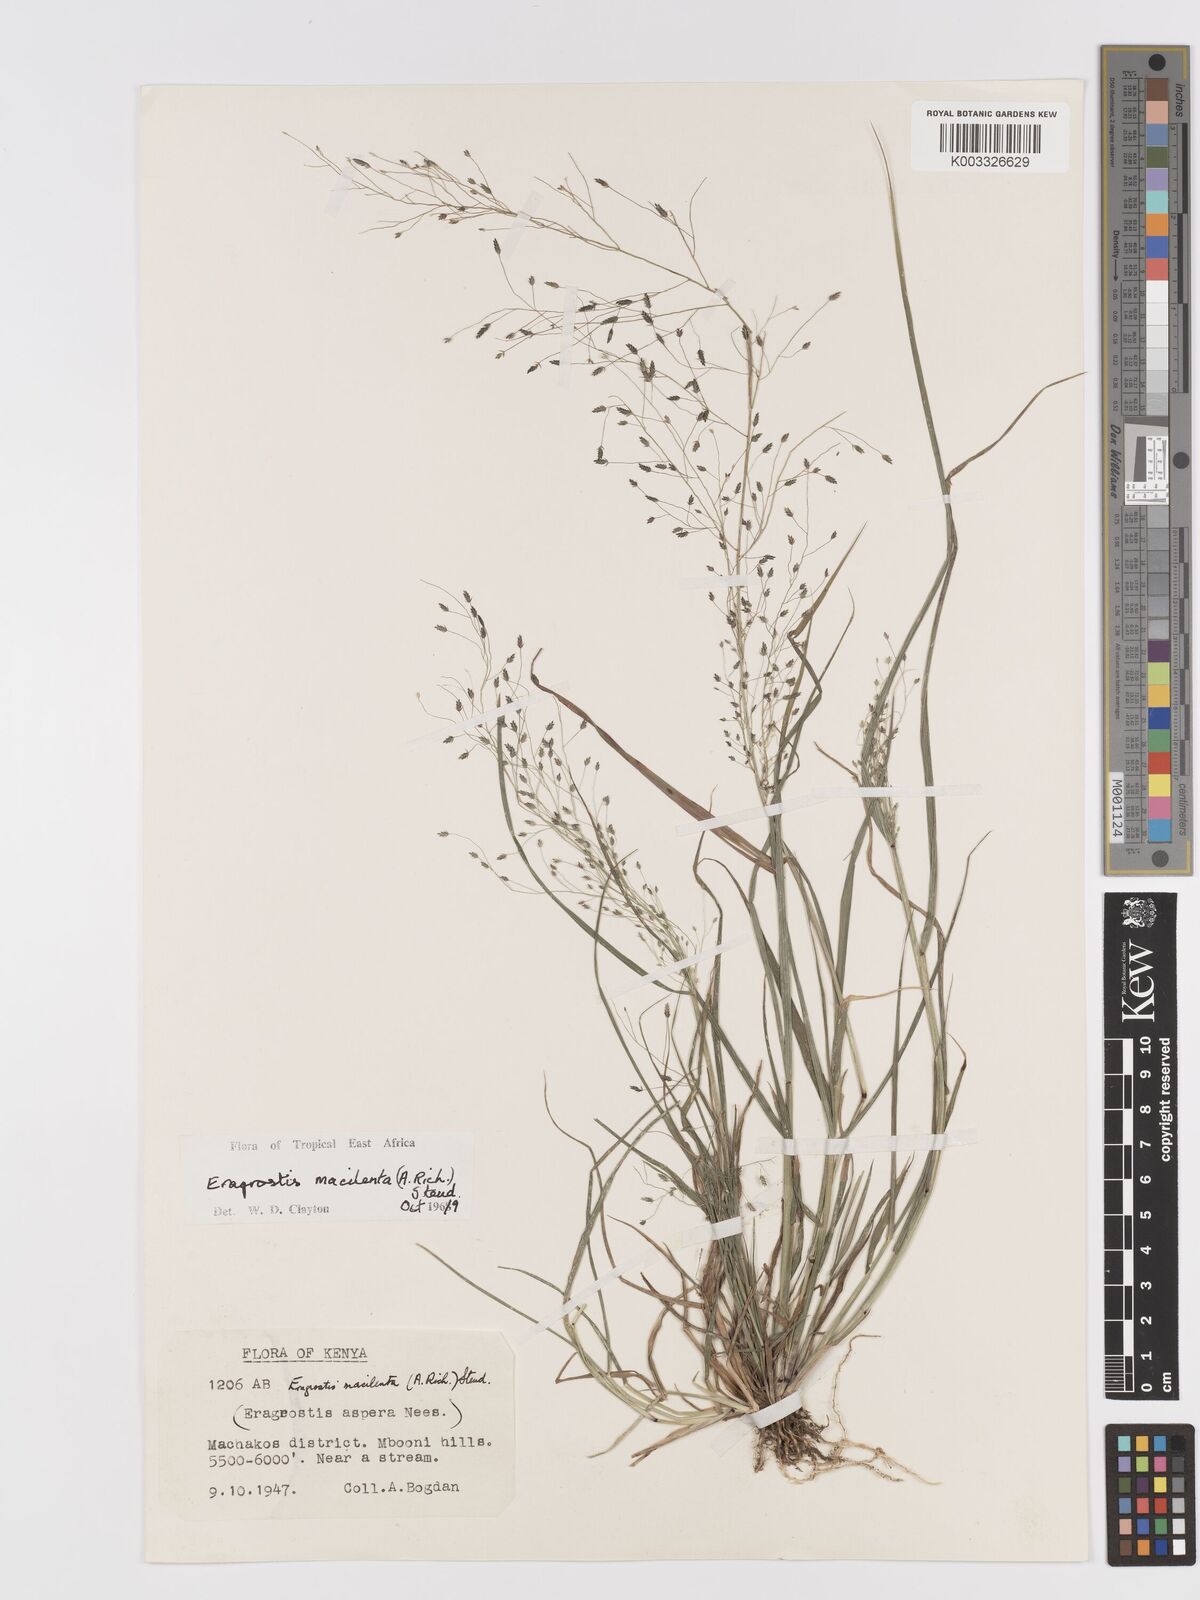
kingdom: Plantae
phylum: Tracheophyta
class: Liliopsida
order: Poales
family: Poaceae
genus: Eragrostis
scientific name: Eragrostis macilenta
